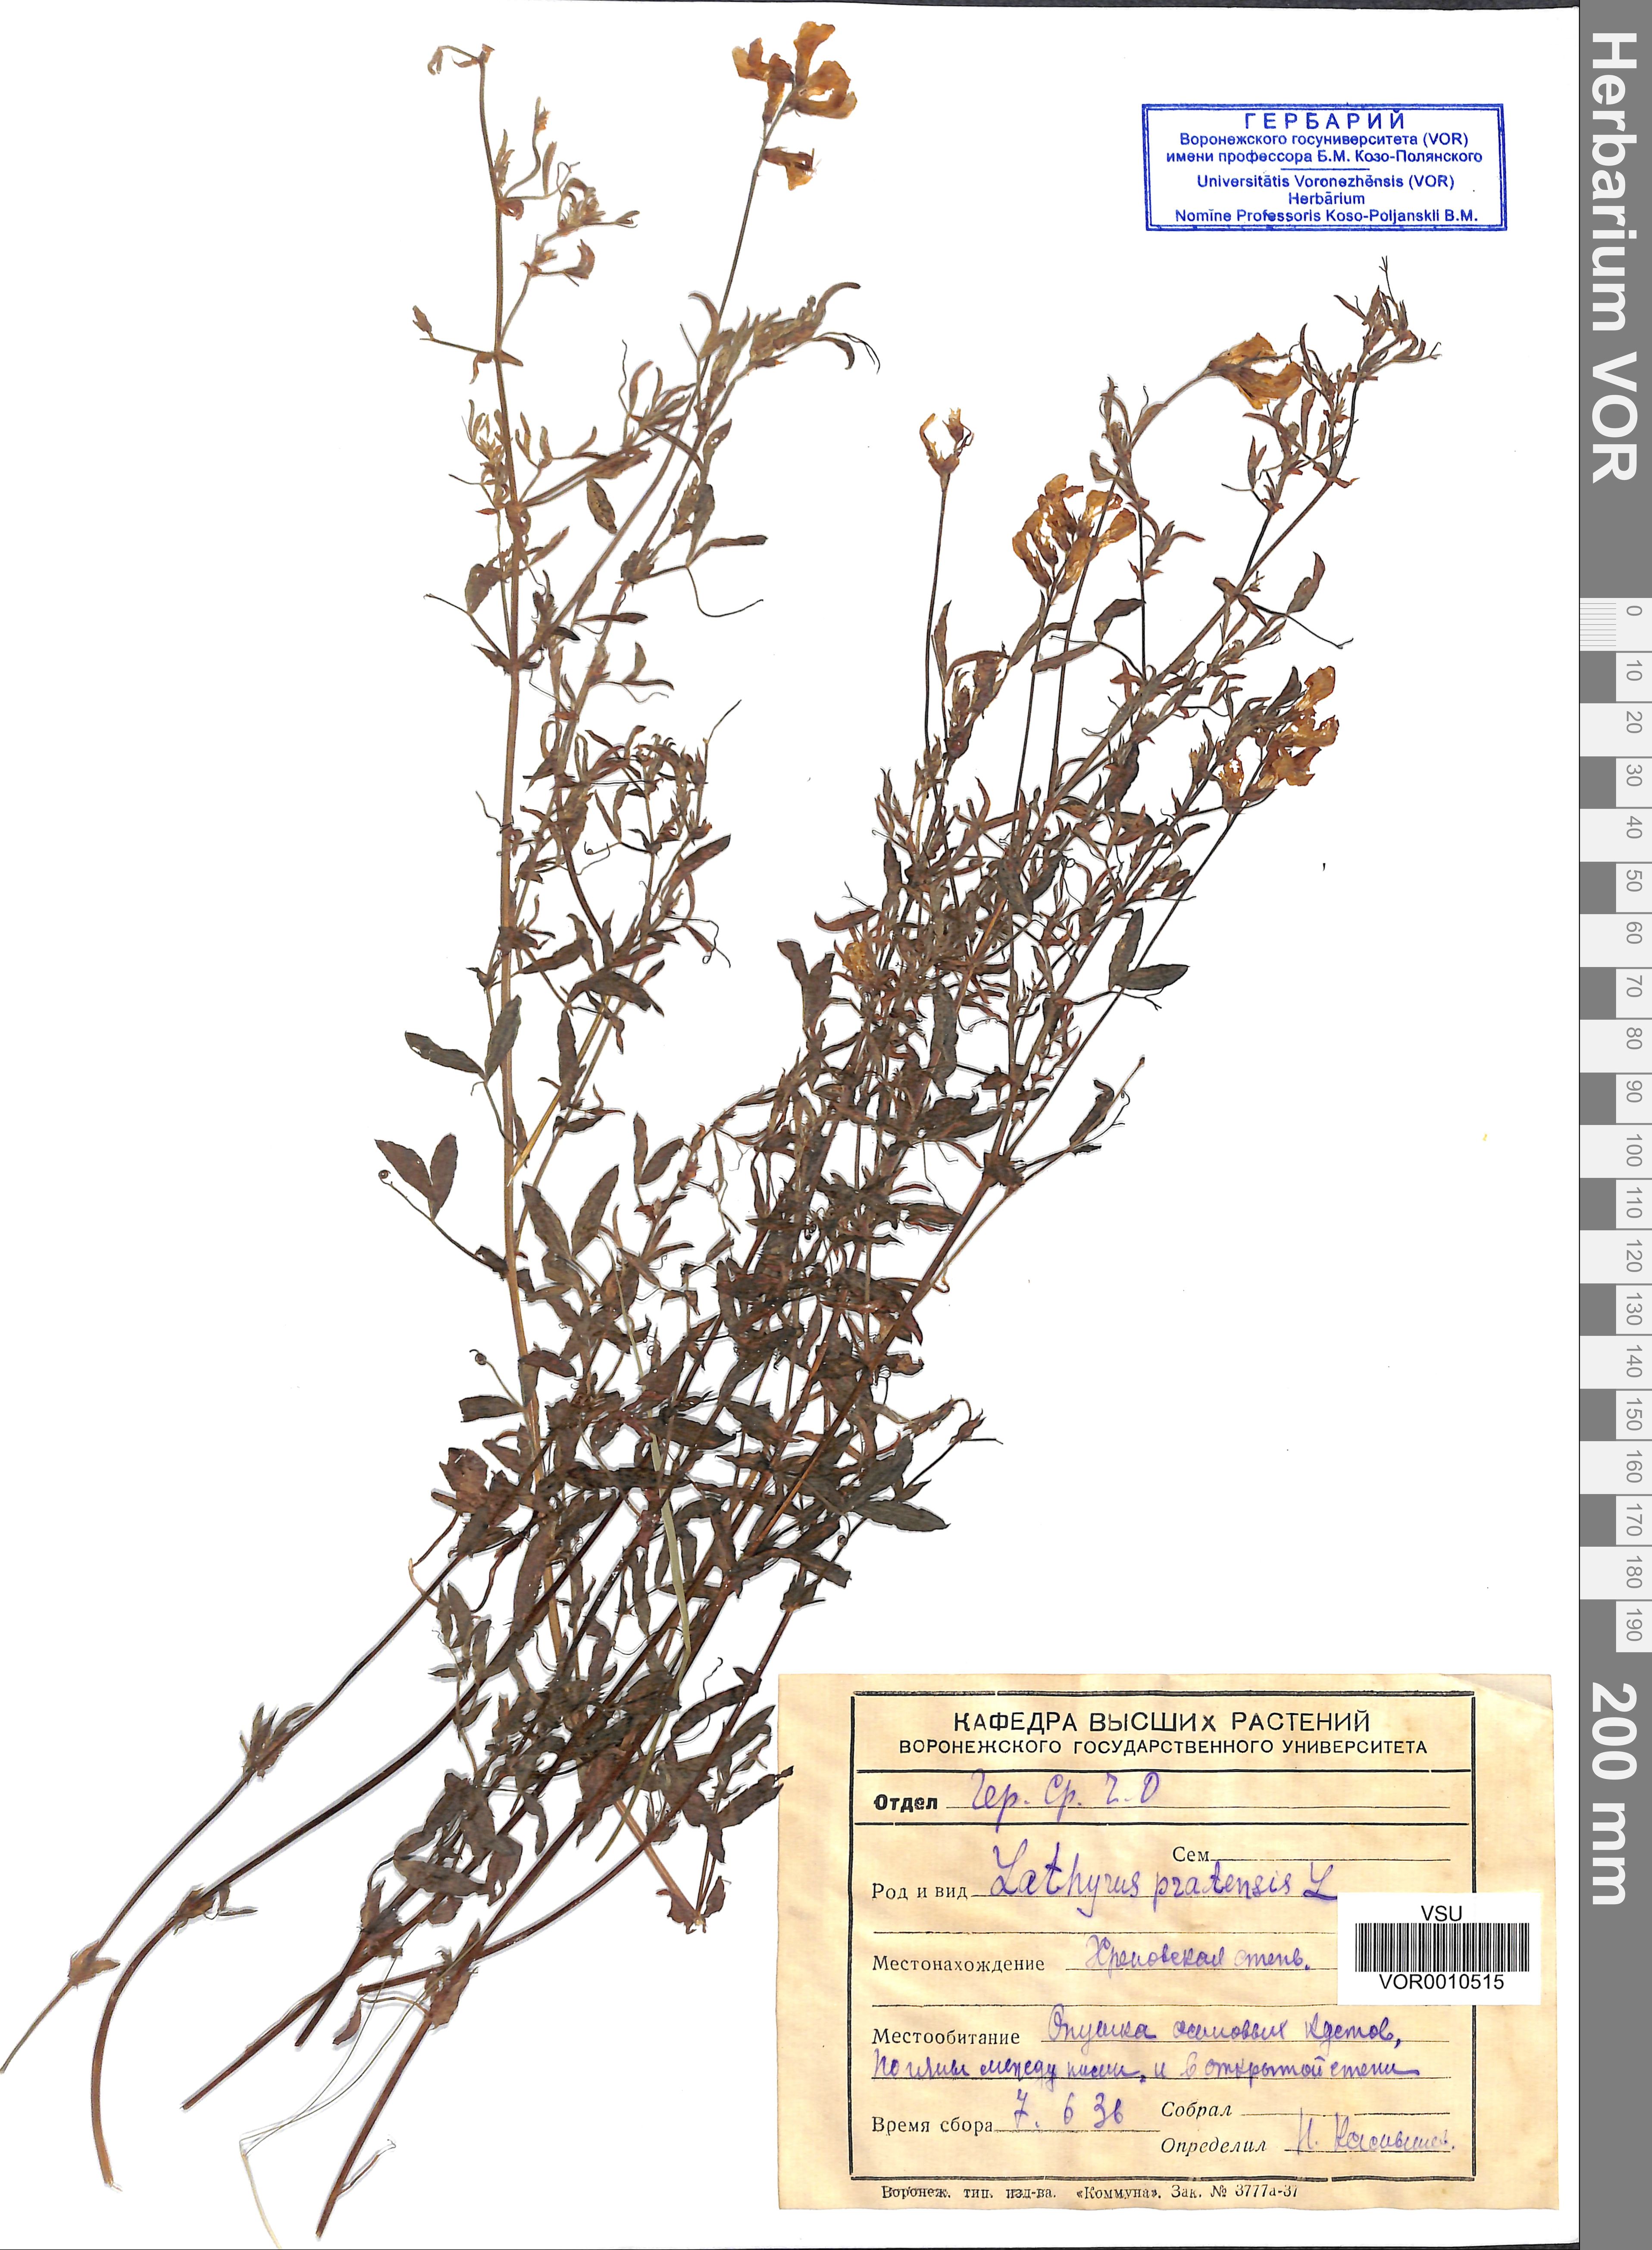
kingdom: Plantae
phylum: Tracheophyta
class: Magnoliopsida
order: Fabales
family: Fabaceae
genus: Lathyrus
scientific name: Lathyrus pratensis
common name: Meadow vetchling
